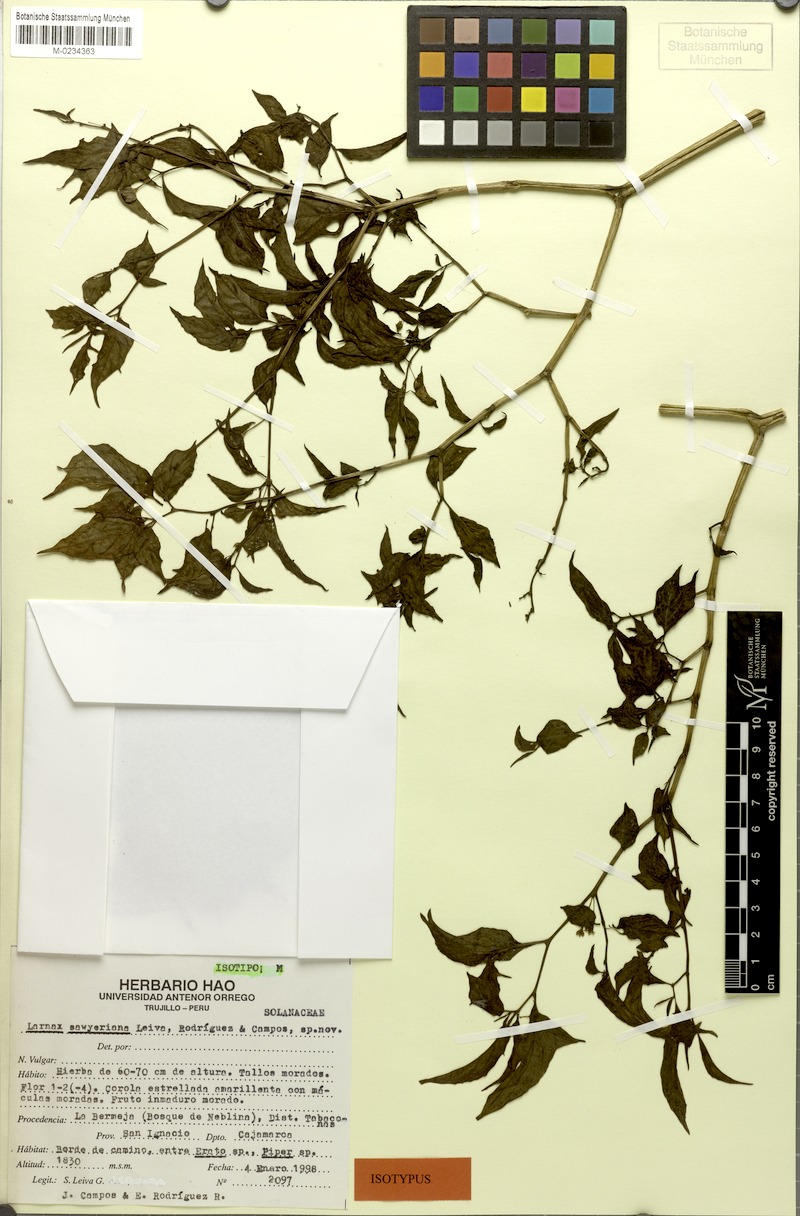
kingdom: Plantae
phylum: Tracheophyta
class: Magnoliopsida
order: Solanales
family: Solanaceae
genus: Deprea
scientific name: Deprea sawyeriana
